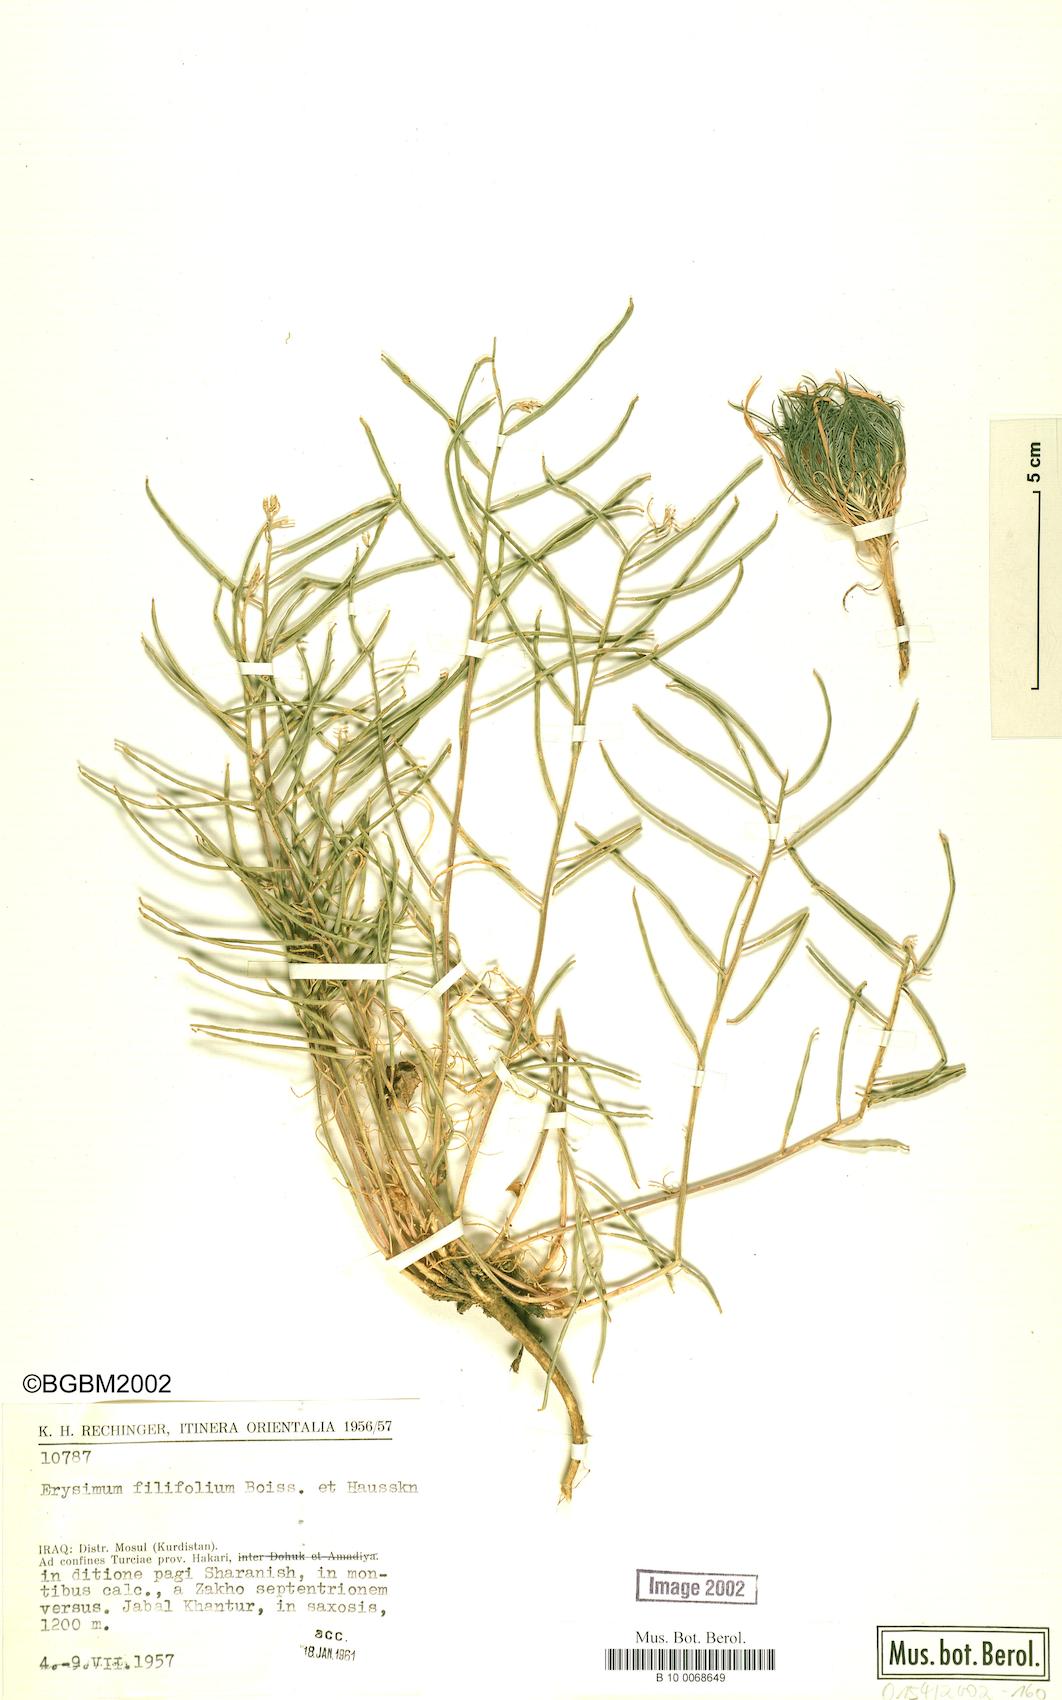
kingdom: Plantae
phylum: Tracheophyta
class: Magnoliopsida
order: Brassicales
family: Brassicaceae
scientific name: Brassicaceae
